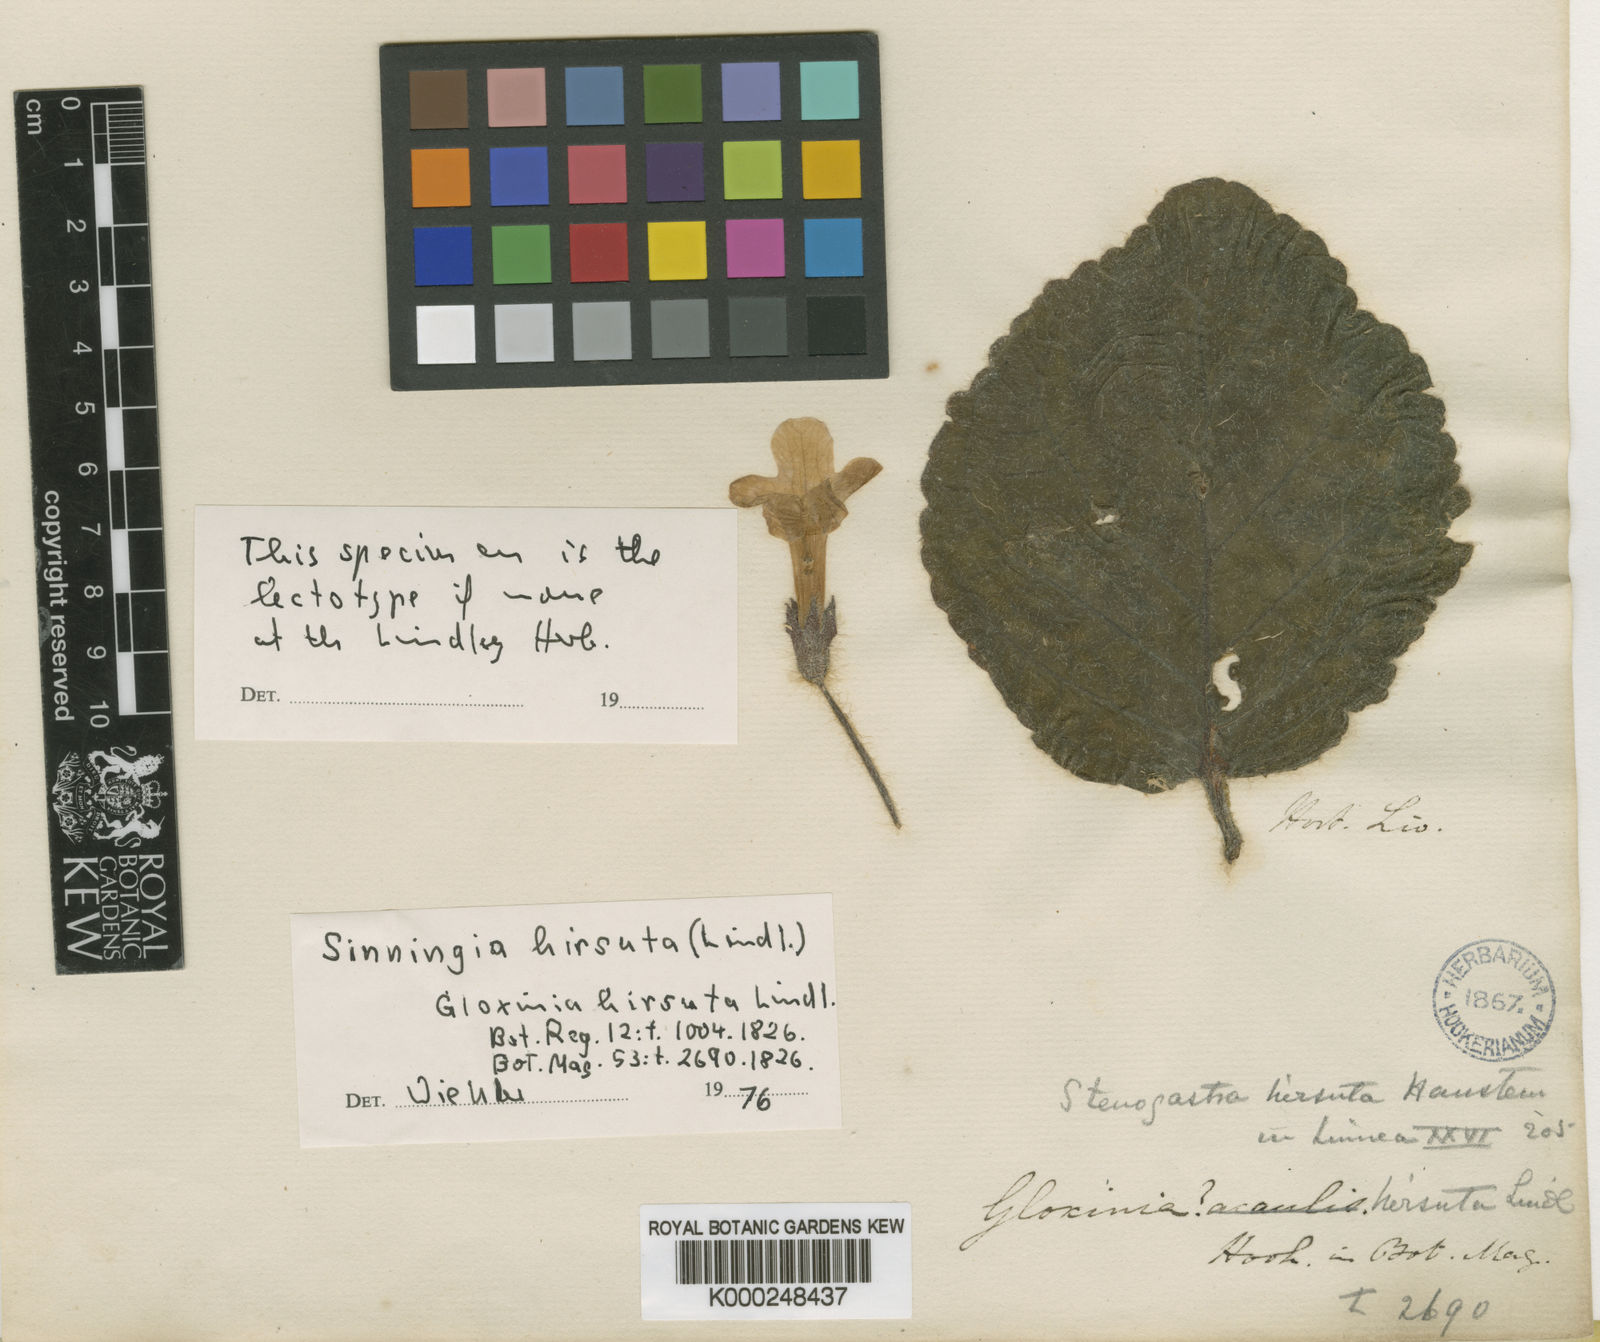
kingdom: Plantae
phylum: Tracheophyta
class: Magnoliopsida
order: Lamiales
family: Gesneriaceae
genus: Sinningia
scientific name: Sinningia hirsuta
